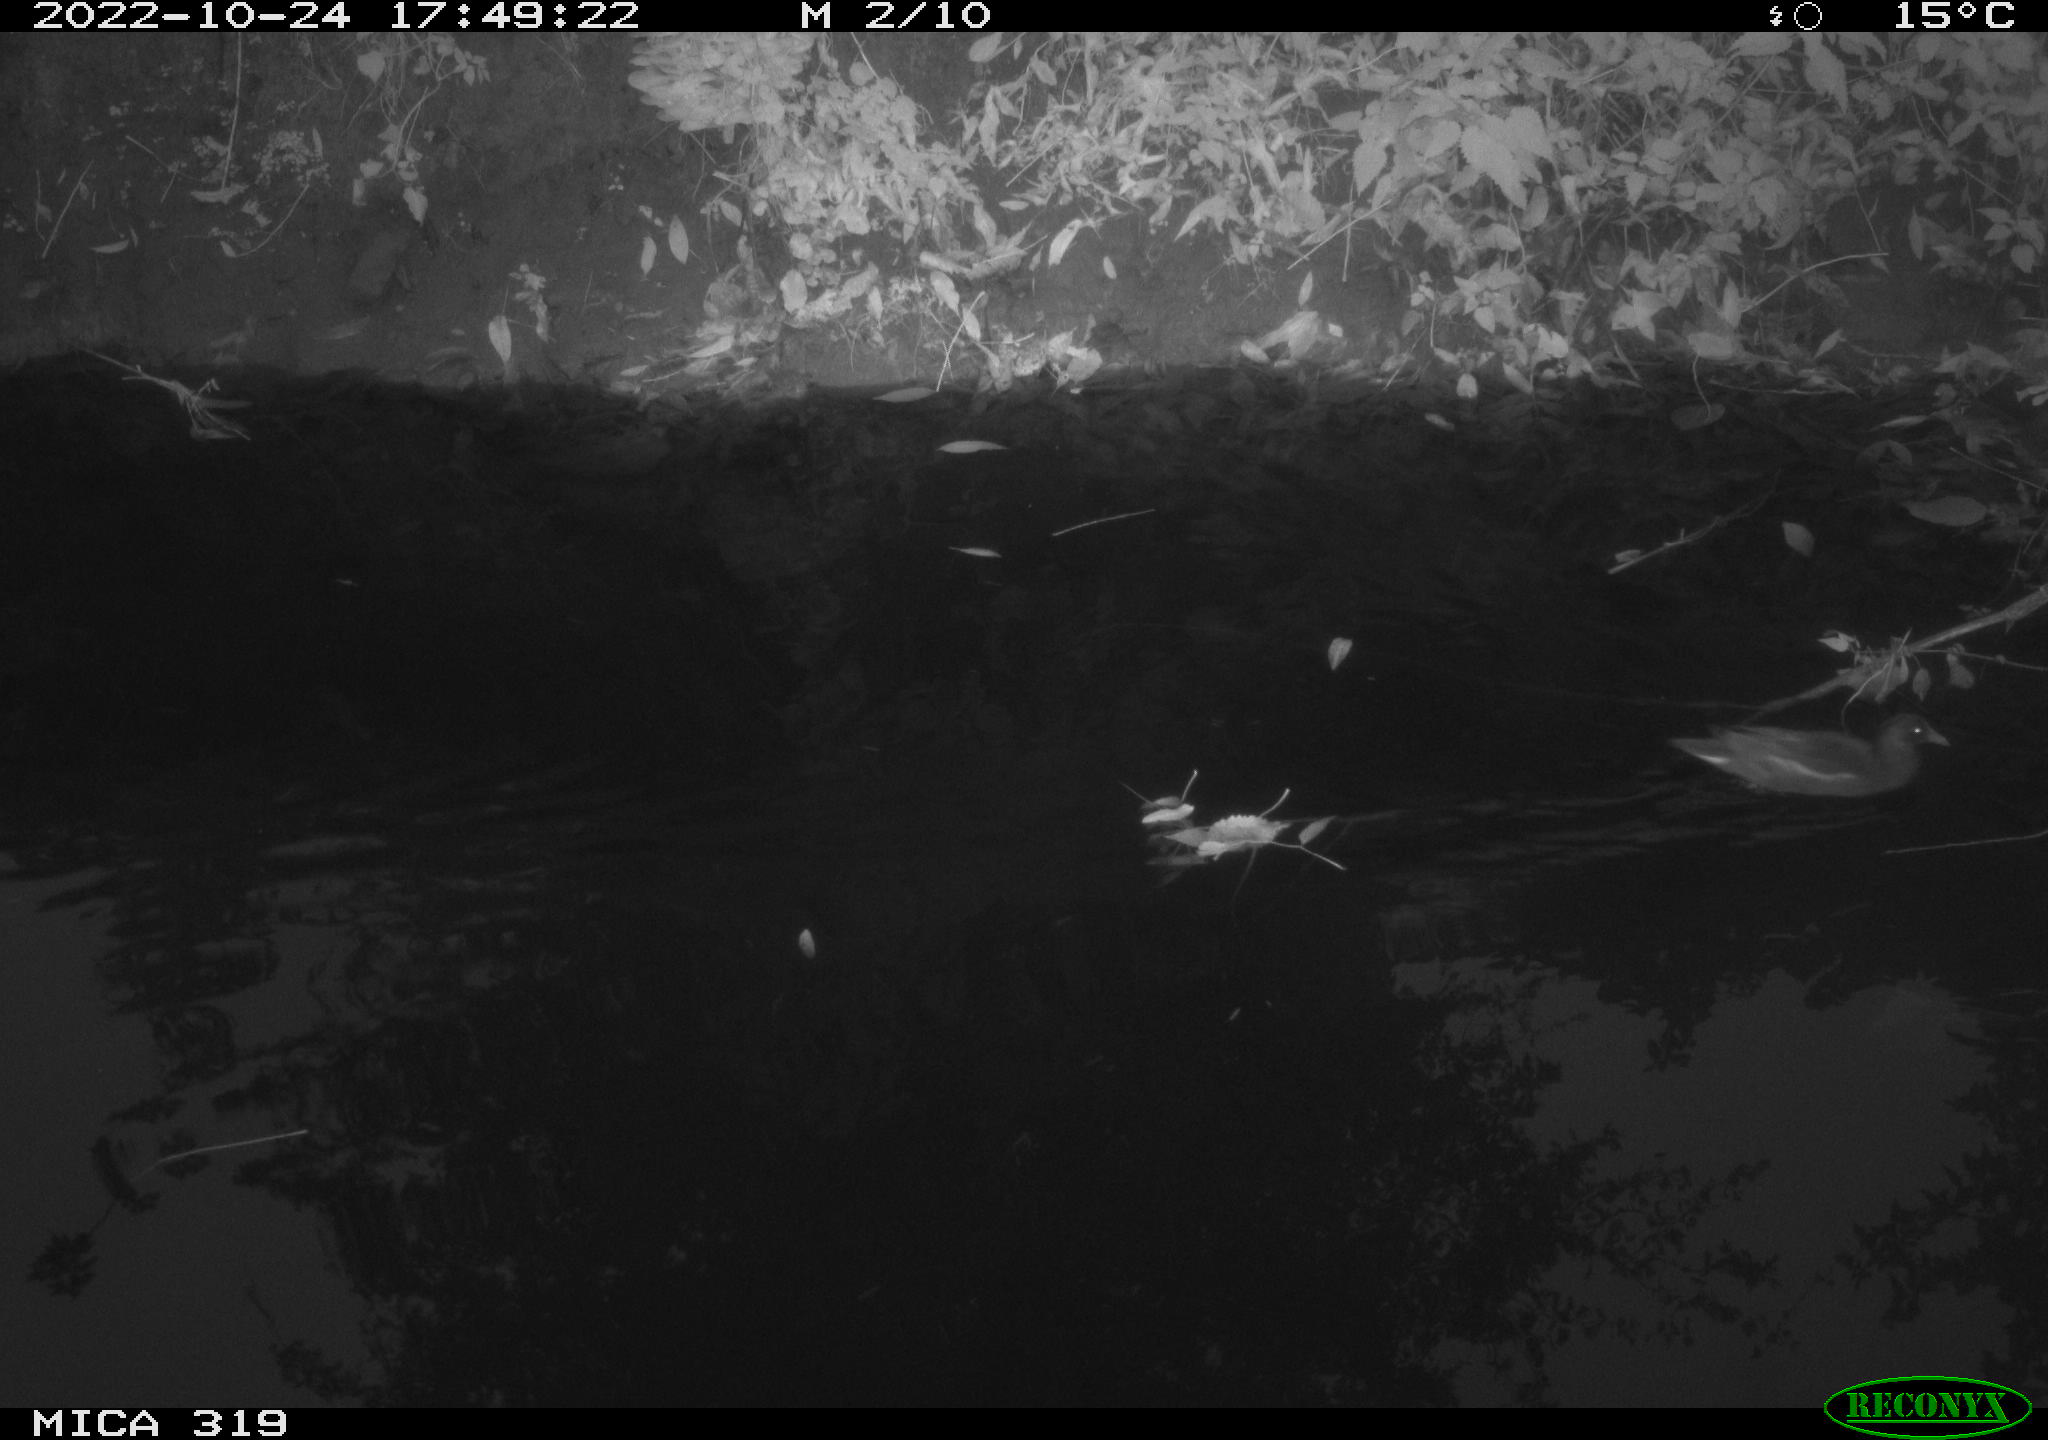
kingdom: Animalia
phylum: Chordata
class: Aves
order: Gruiformes
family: Rallidae
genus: Gallinula
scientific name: Gallinula chloropus
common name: Common moorhen
